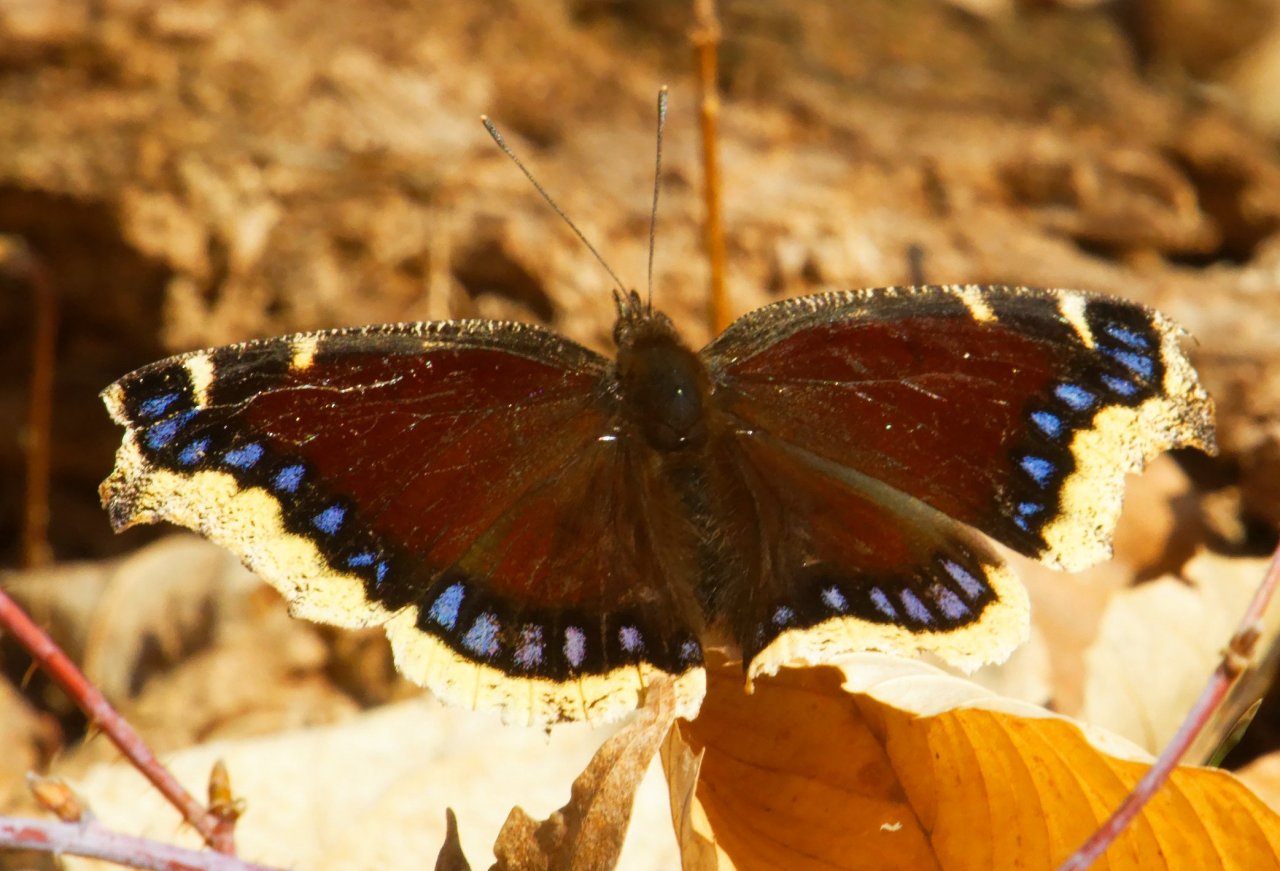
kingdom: Animalia
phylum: Arthropoda
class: Insecta
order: Lepidoptera
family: Nymphalidae
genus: Nymphalis
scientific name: Nymphalis antiopa
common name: Mourning Cloak
